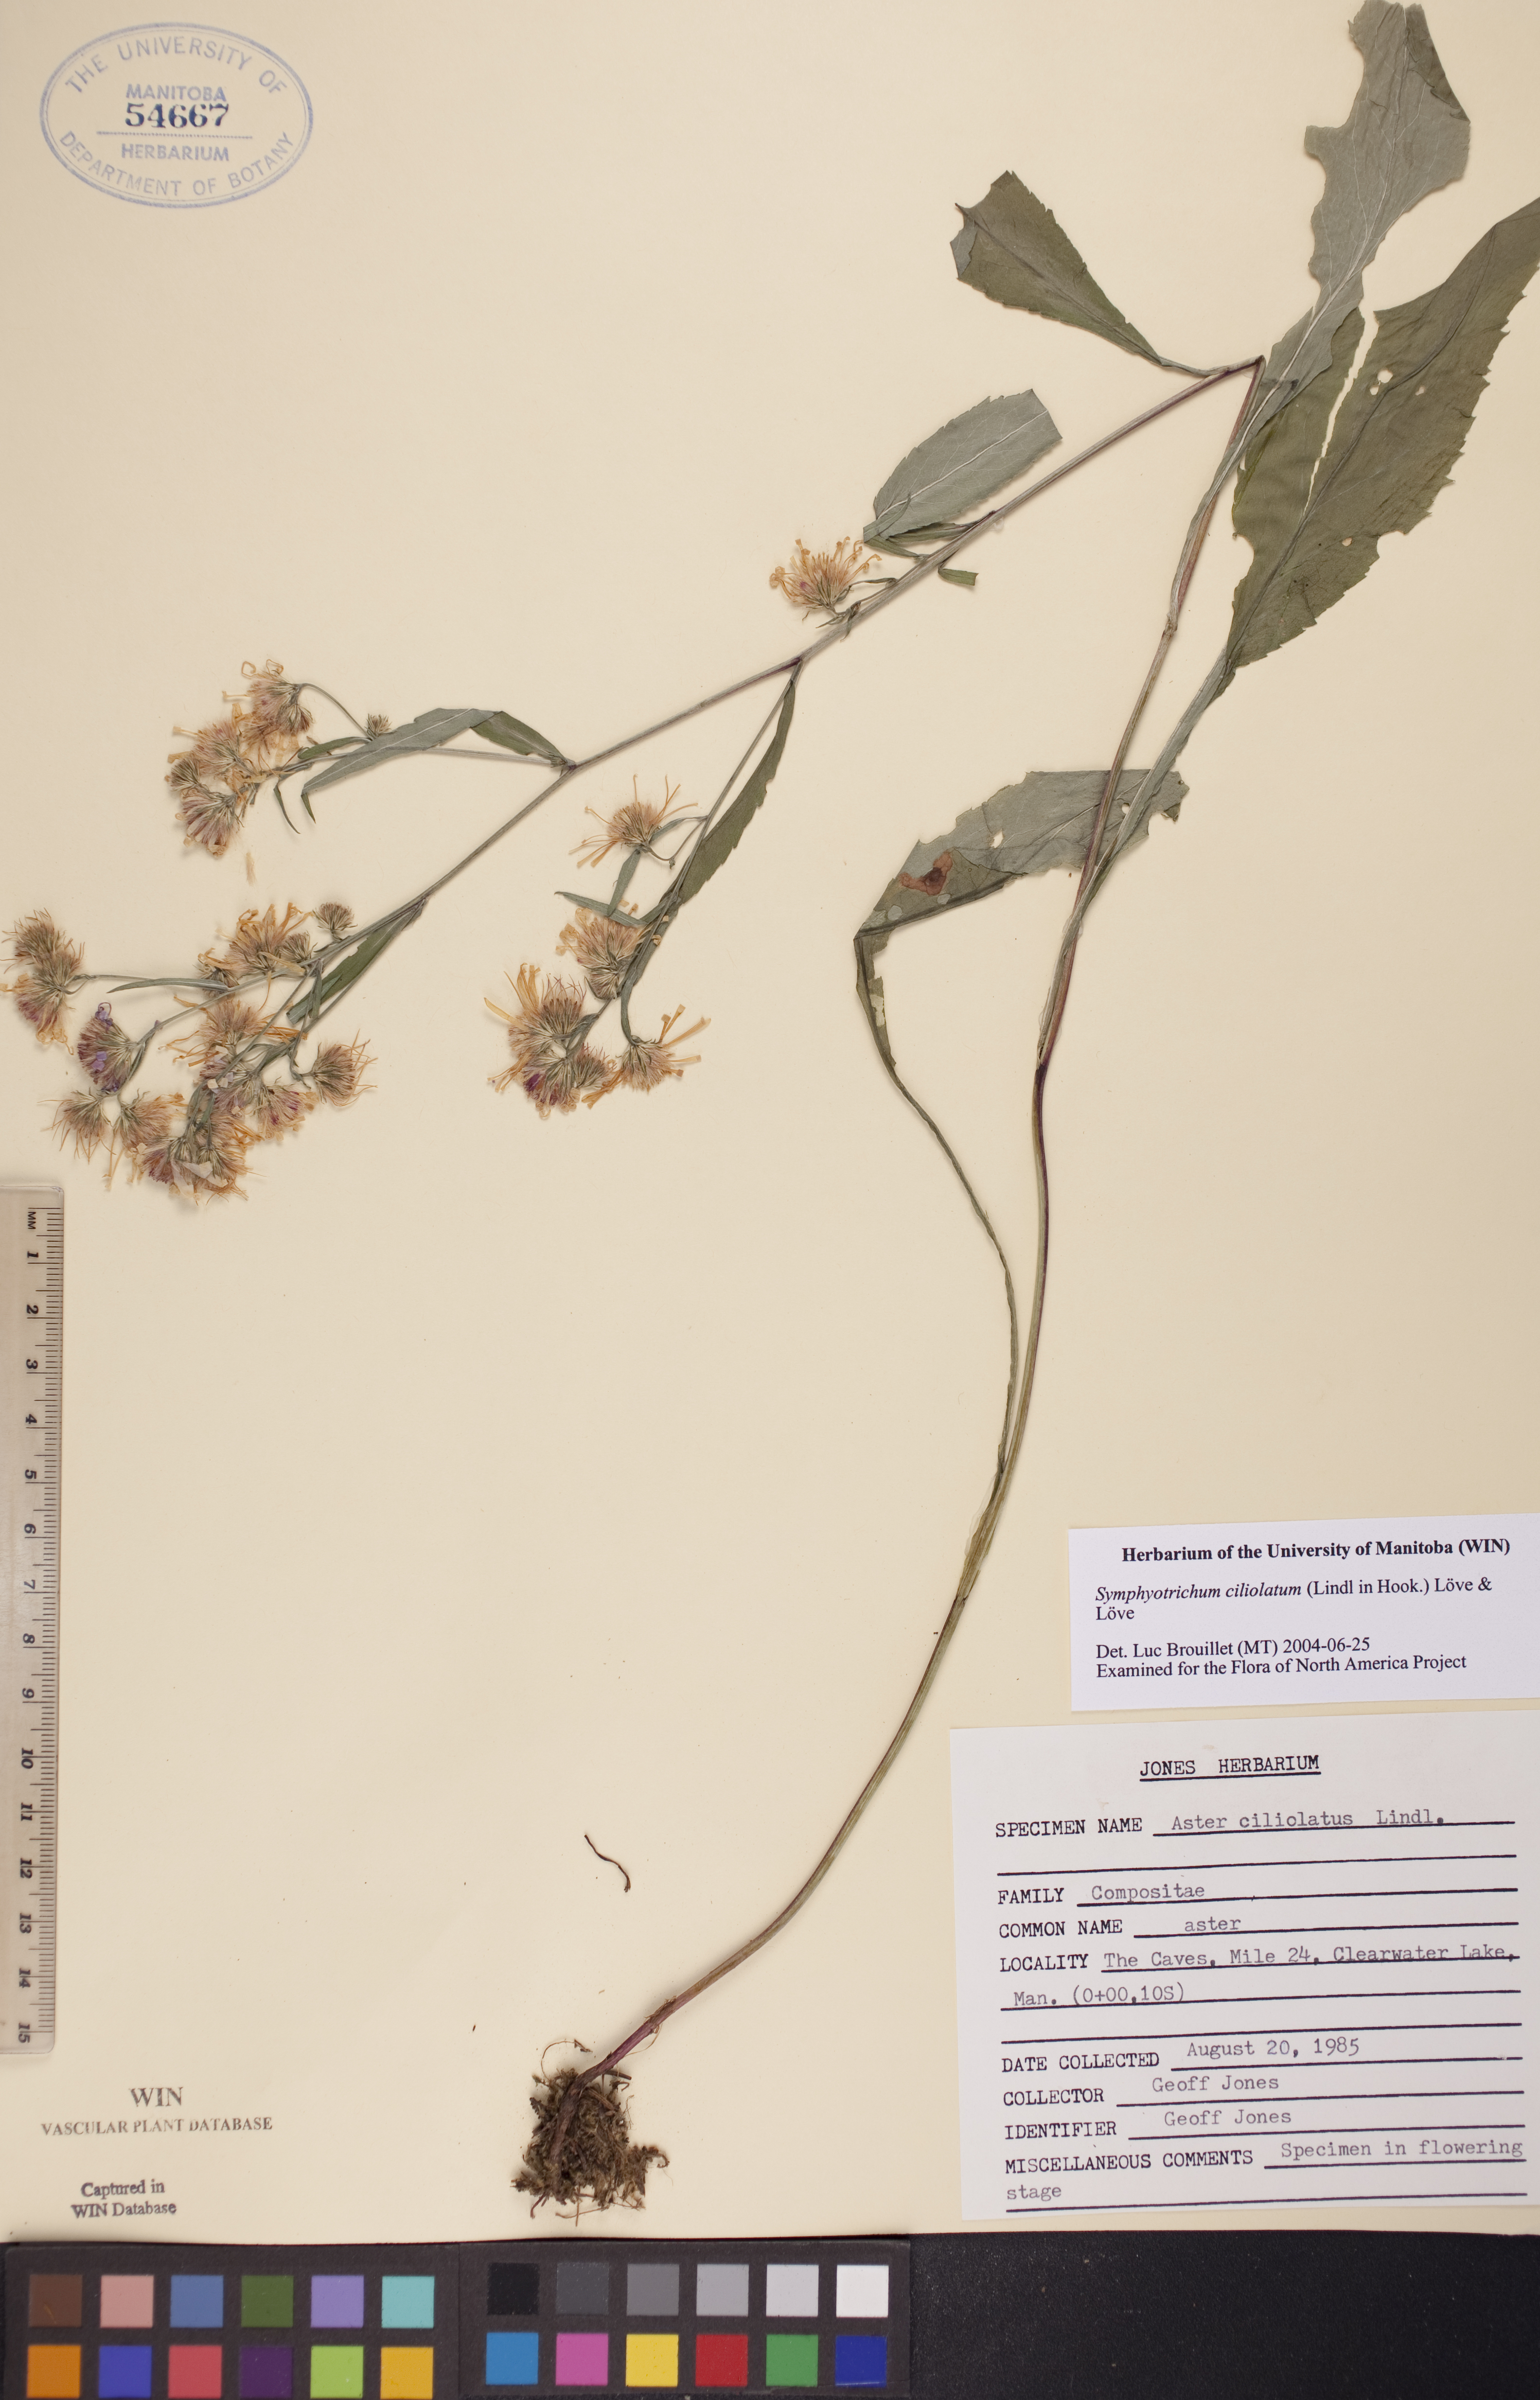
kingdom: Plantae
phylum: Tracheophyta
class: Magnoliopsida
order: Asterales
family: Asteraceae
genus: Symphyotrichum
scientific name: Symphyotrichum ciliolatum
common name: Fringed blue aster
